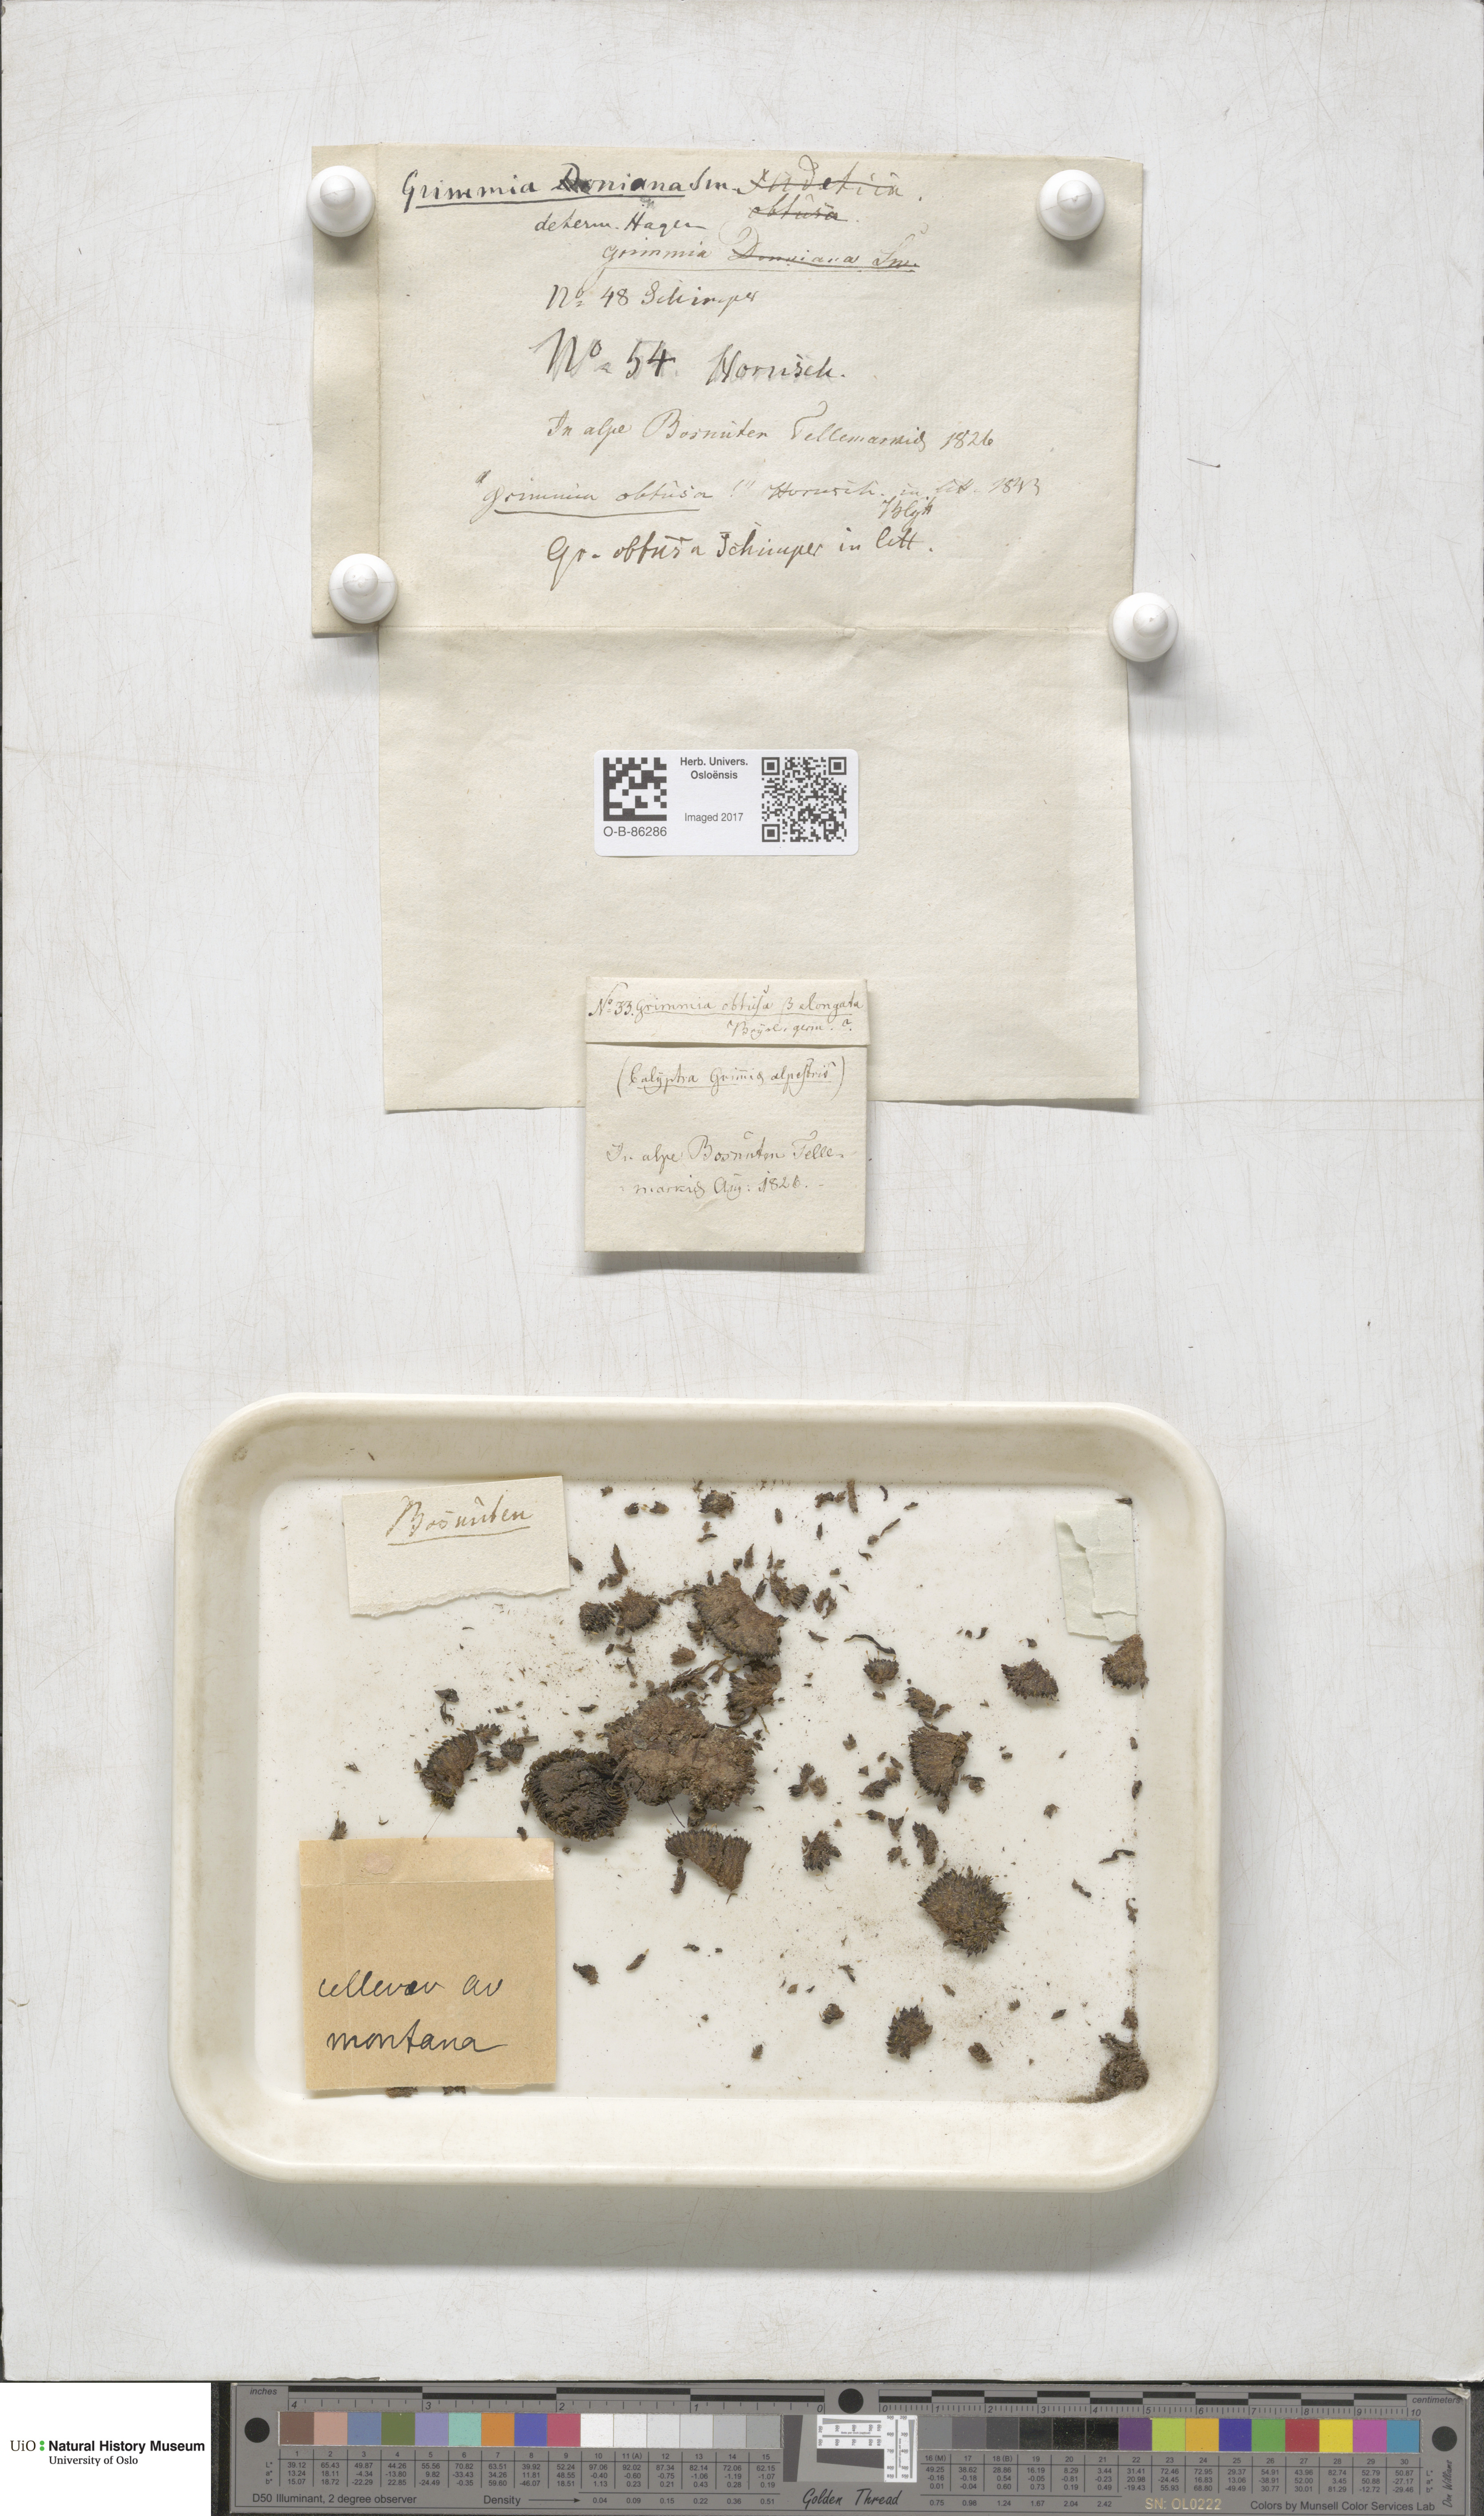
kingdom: Plantae
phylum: Bryophyta
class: Bryopsida
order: Grimmiales
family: Grimmiaceae
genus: Grimmia
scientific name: Grimmia donniana
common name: Donn's grimmia
